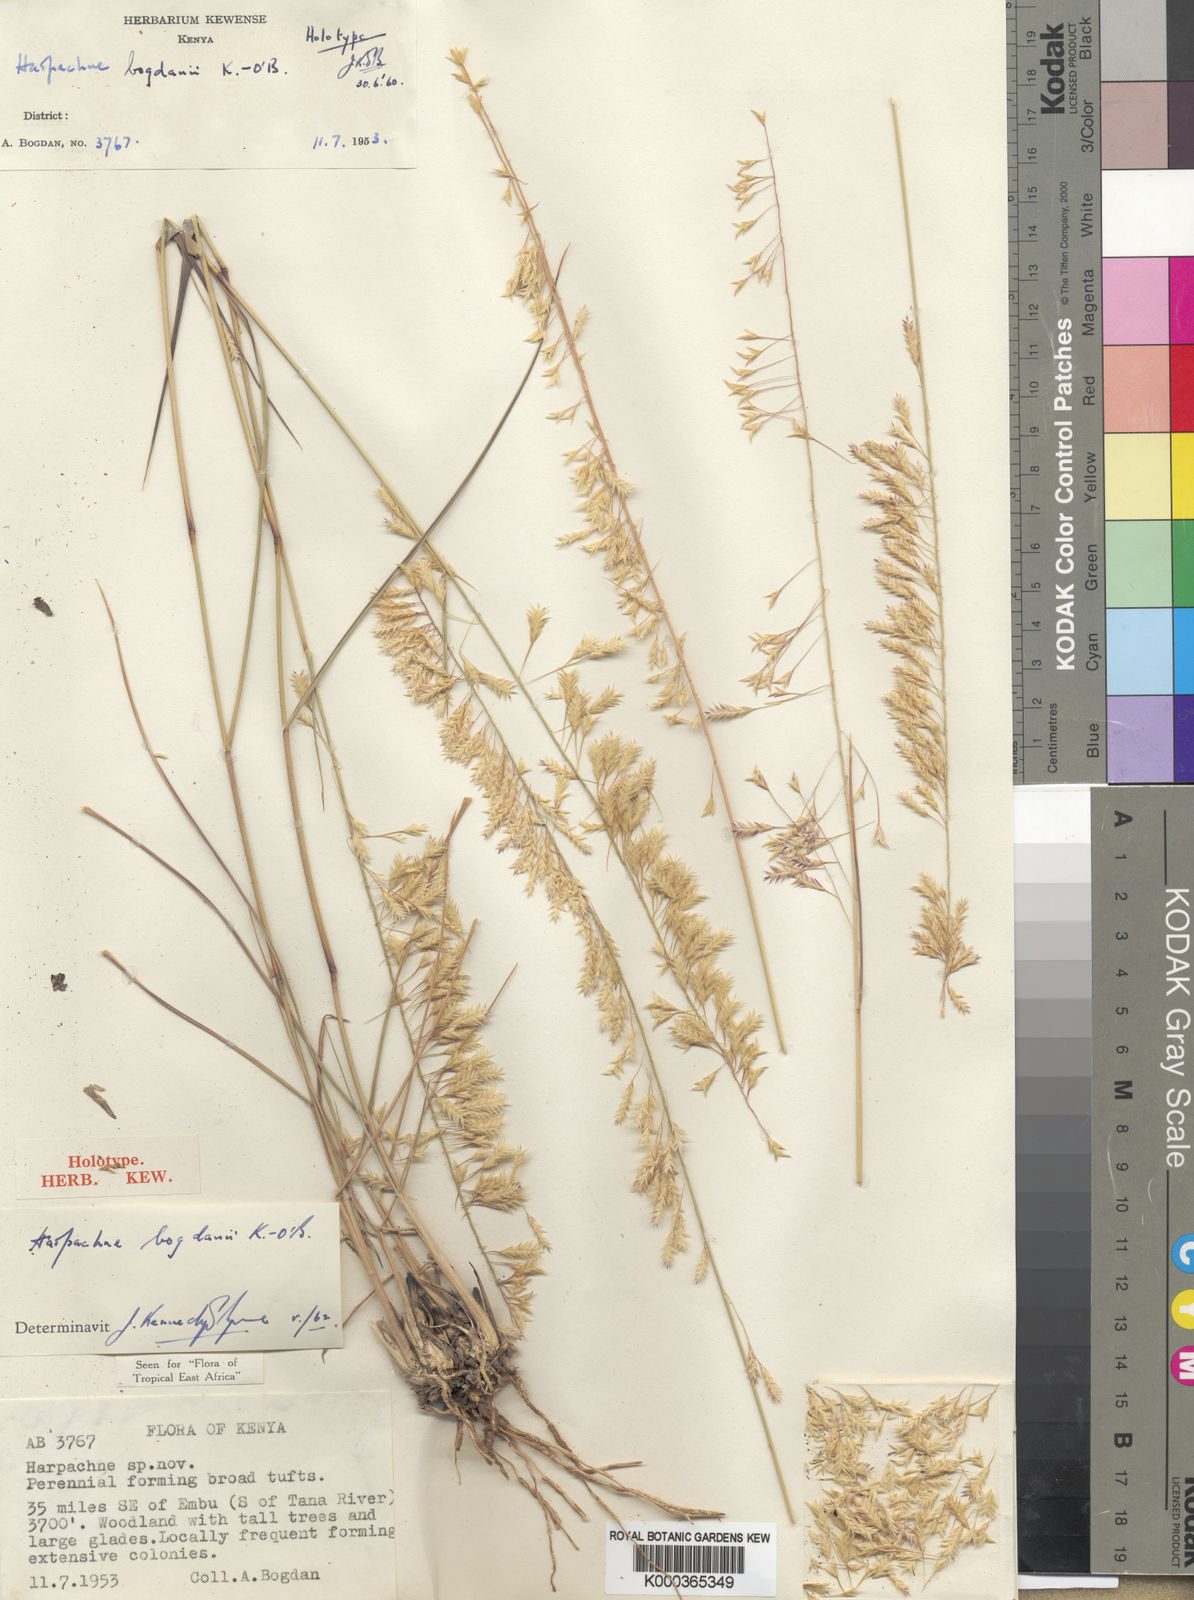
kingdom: Plantae
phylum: Tracheophyta
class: Liliopsida
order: Poales
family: Poaceae
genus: Harpachne
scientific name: Harpachne bogdanii
